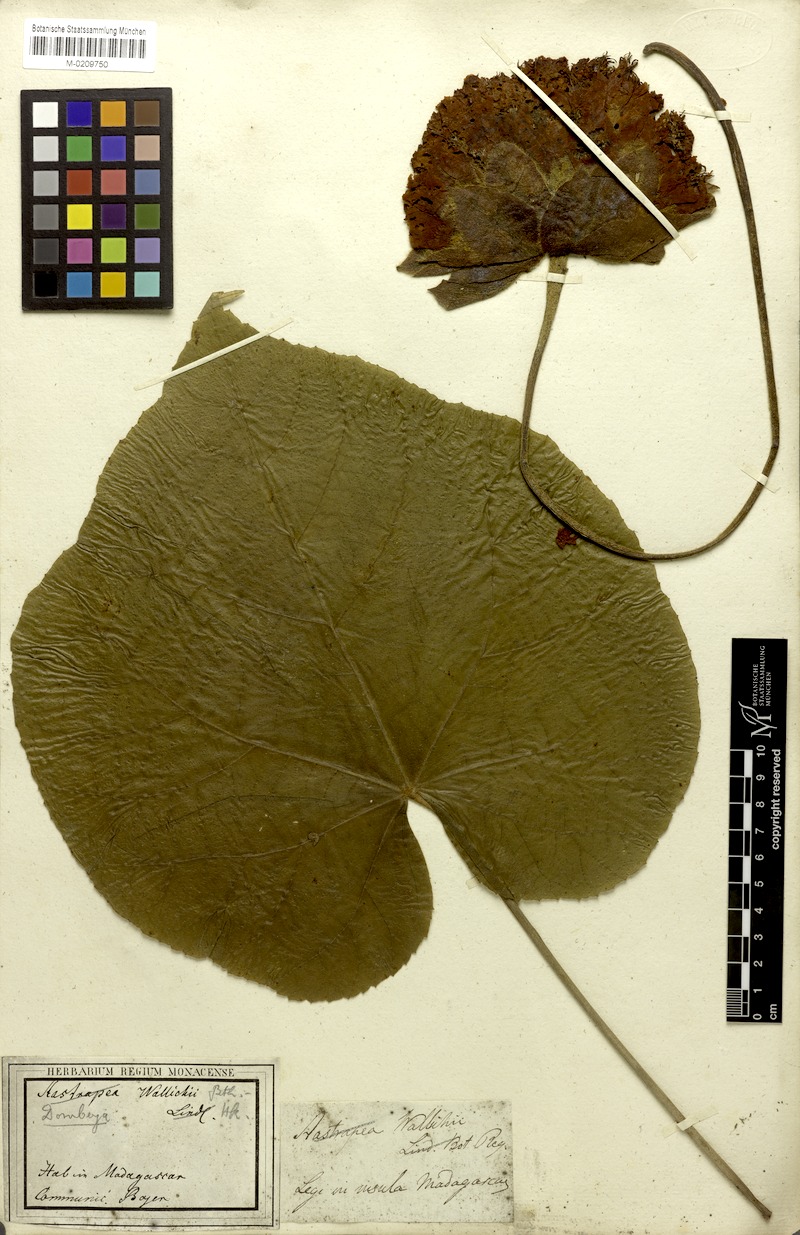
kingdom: Plantae
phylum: Tracheophyta
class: Magnoliopsida
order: Malvales
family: Malvaceae
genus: Dombeya
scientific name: Dombeya wallichii
